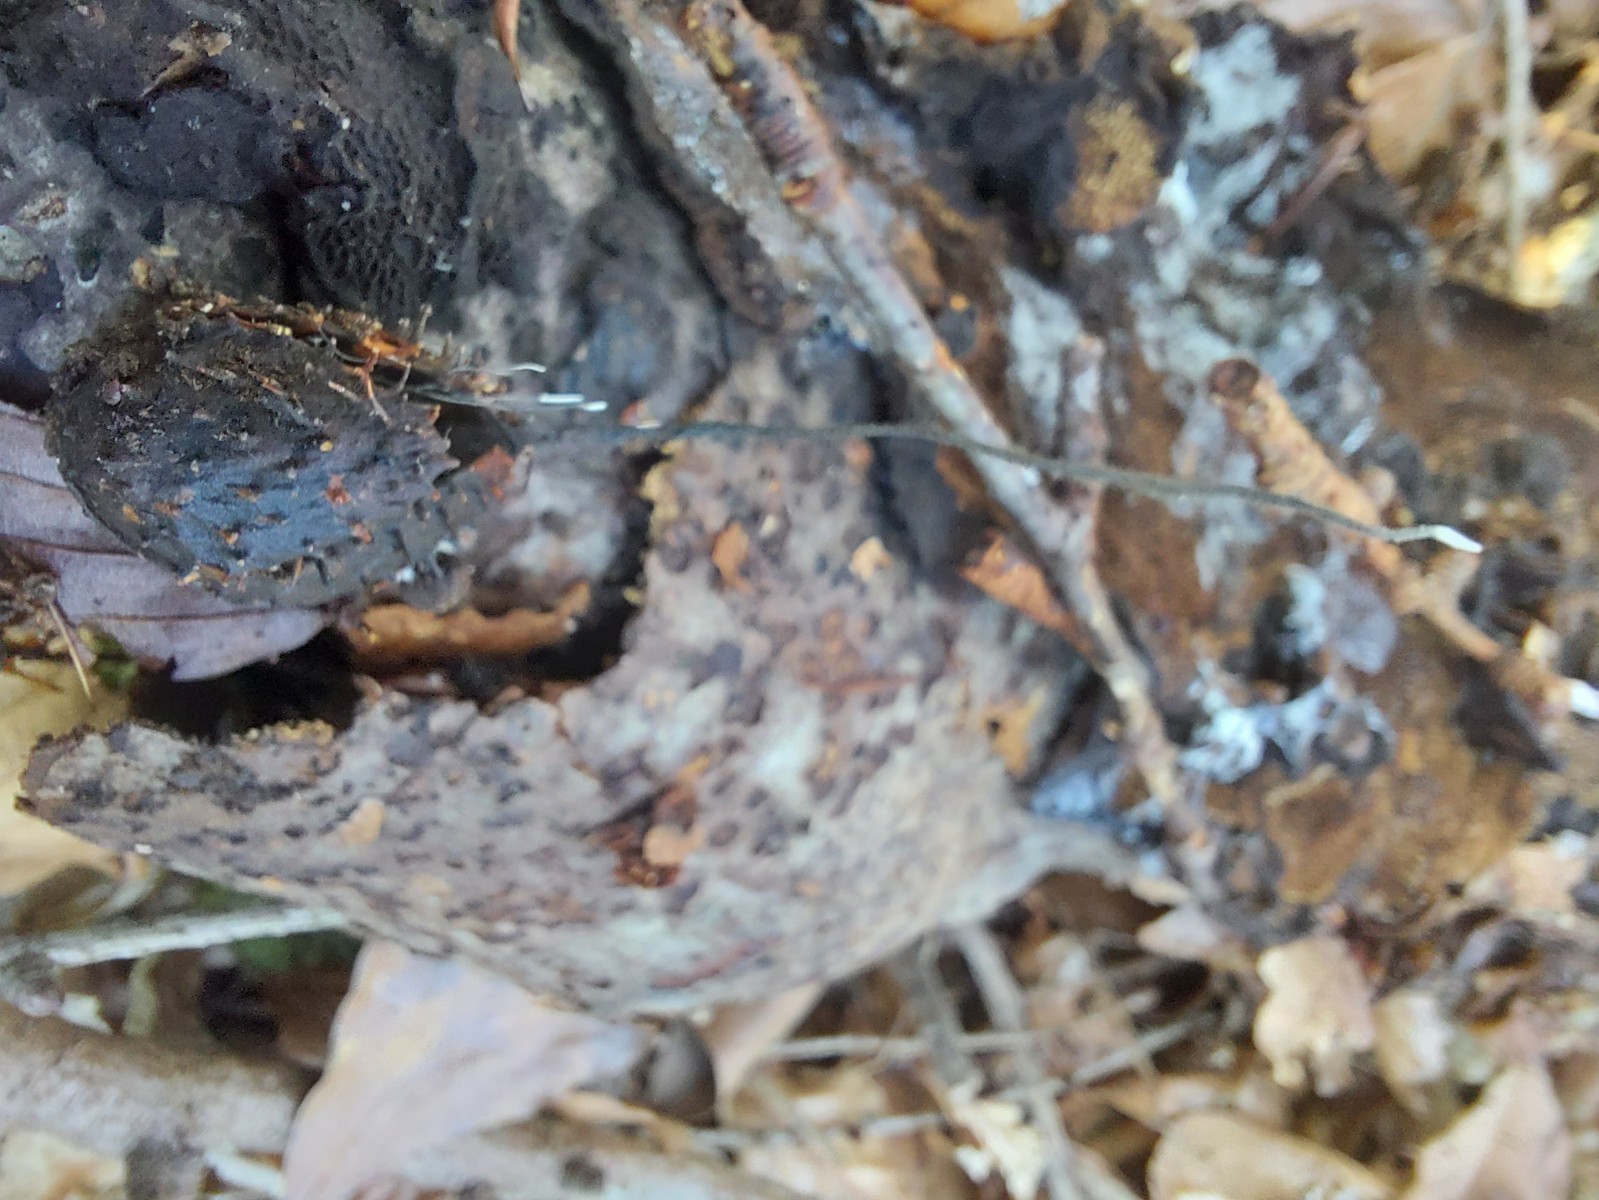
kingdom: Fungi
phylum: Ascomycota
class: Sordariomycetes
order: Xylariales
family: Xylariaceae
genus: Xylaria
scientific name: Xylaria carpophila
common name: bogskål-stødsvamp
